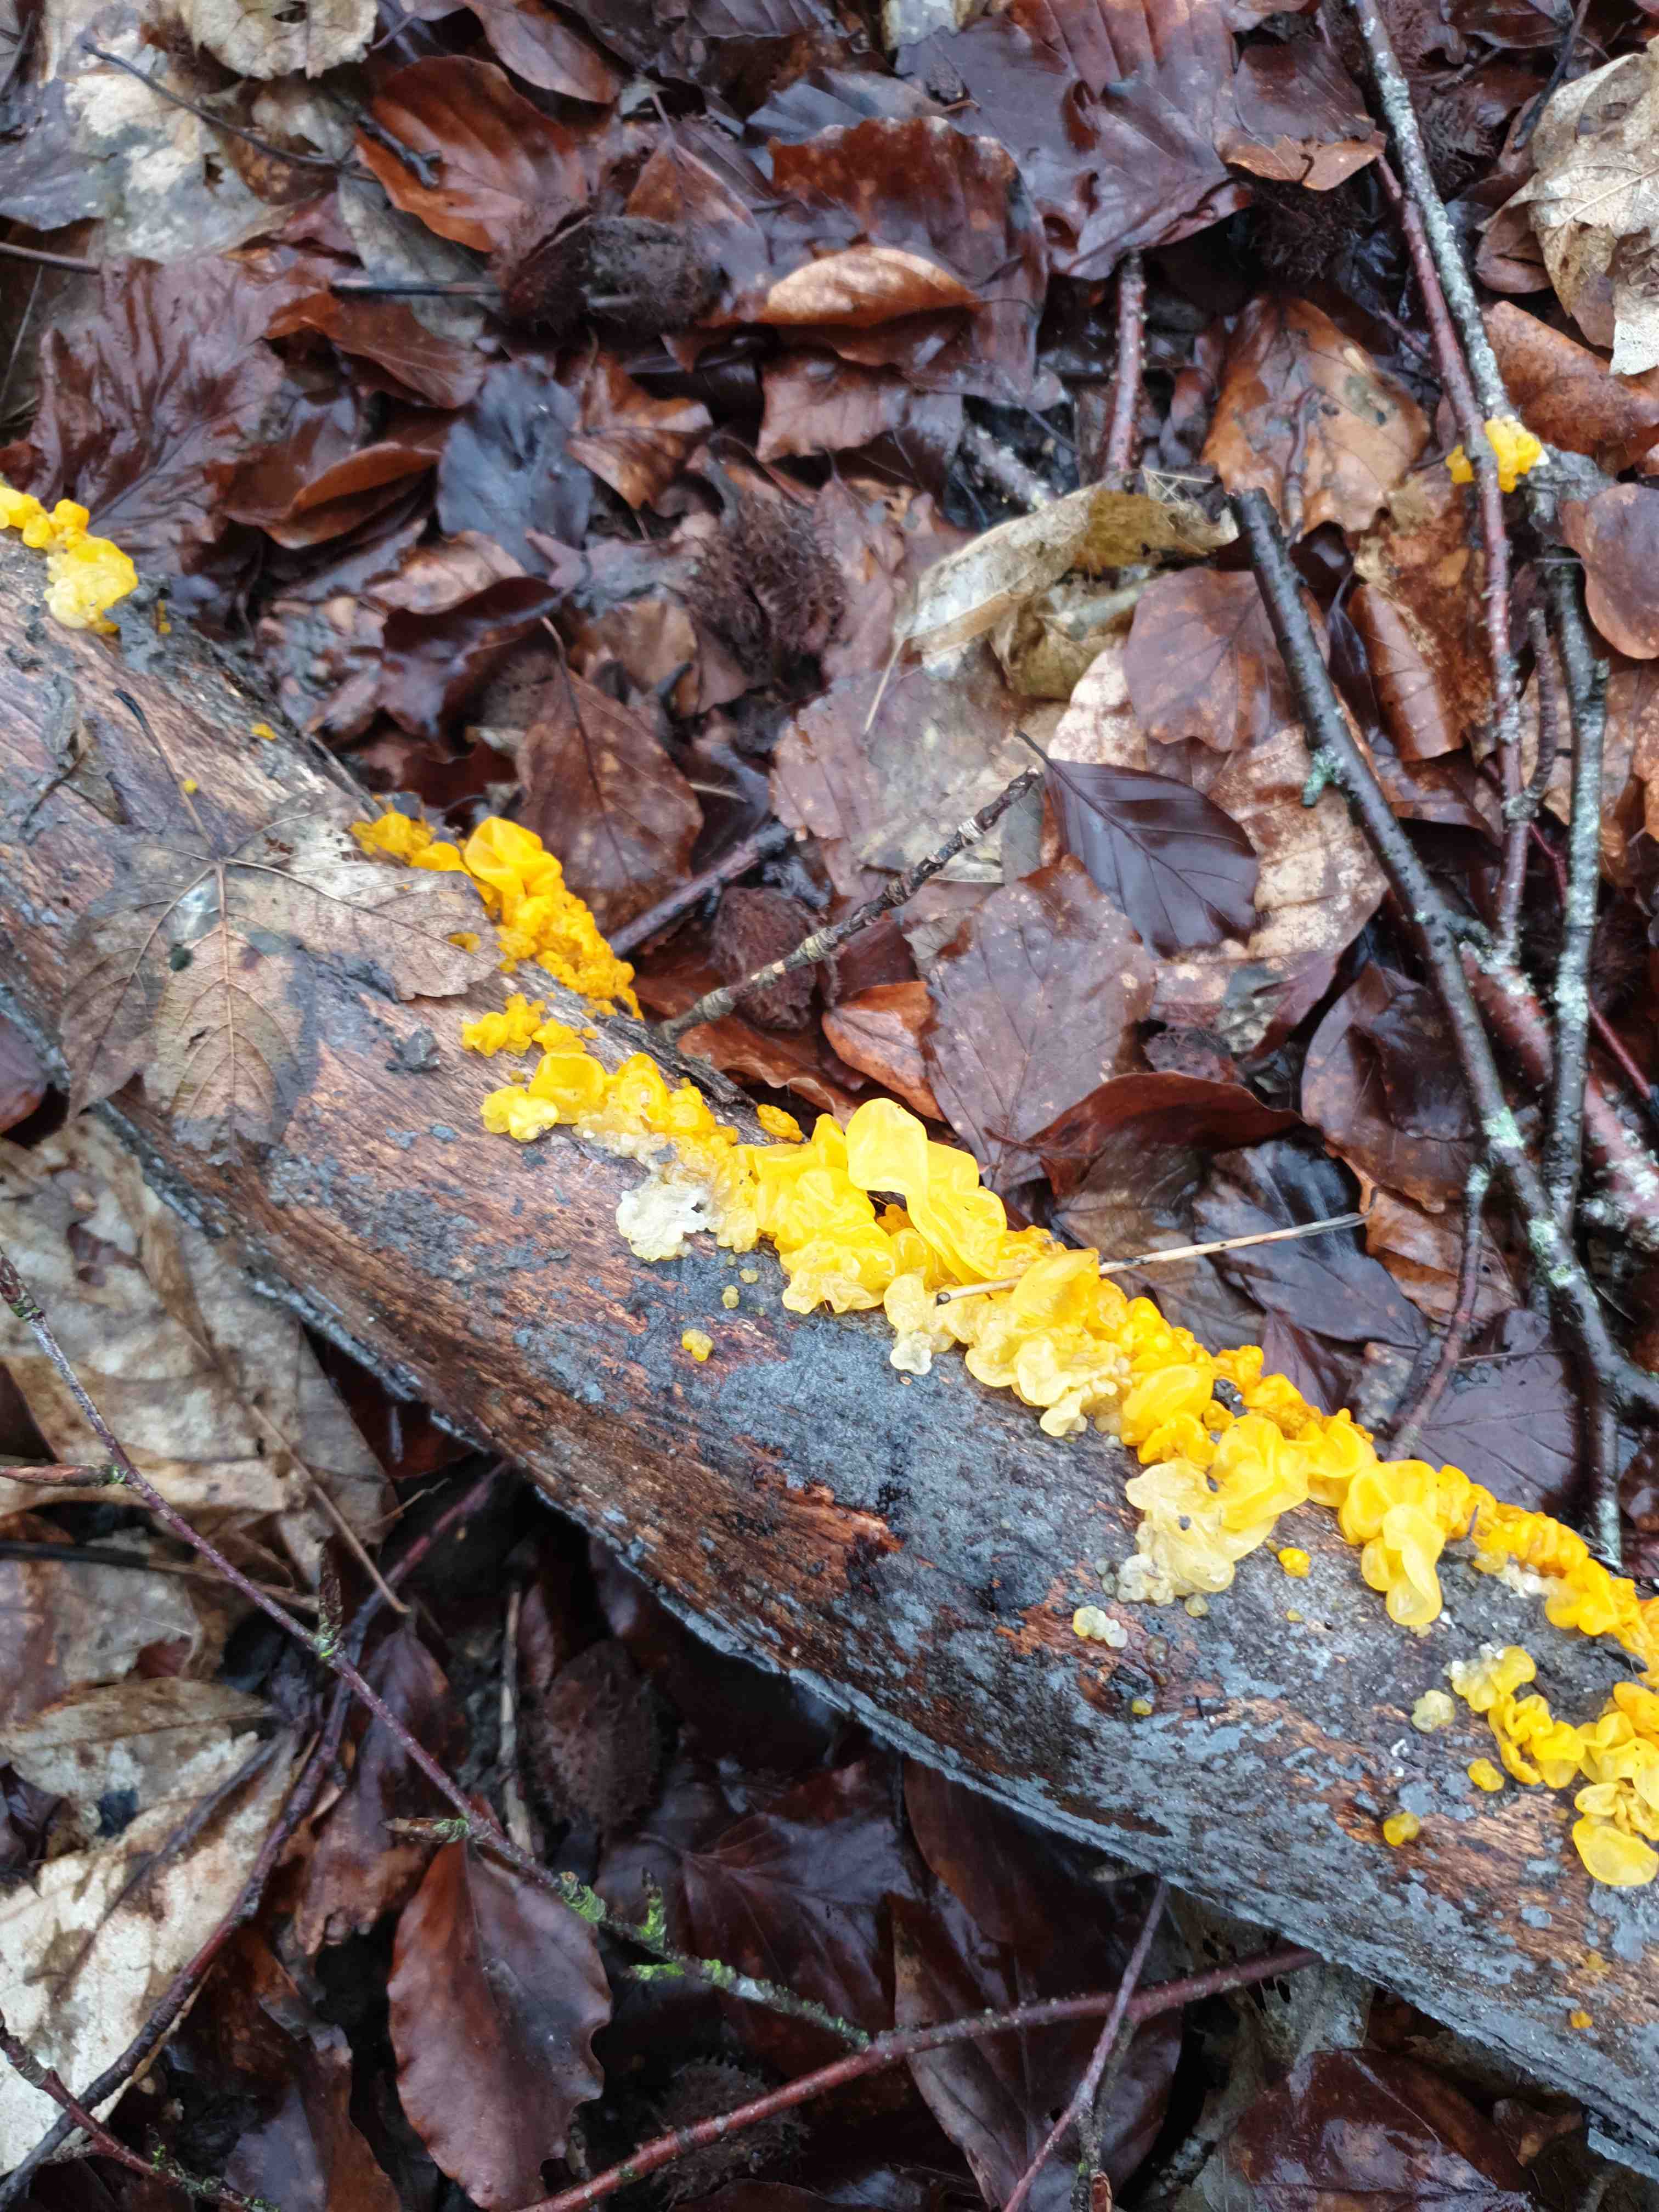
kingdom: Fungi
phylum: Basidiomycota
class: Tremellomycetes
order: Tremellales
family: Tremellaceae
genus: Tremella
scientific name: Tremella mesenterica
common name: gul bævresvamp
